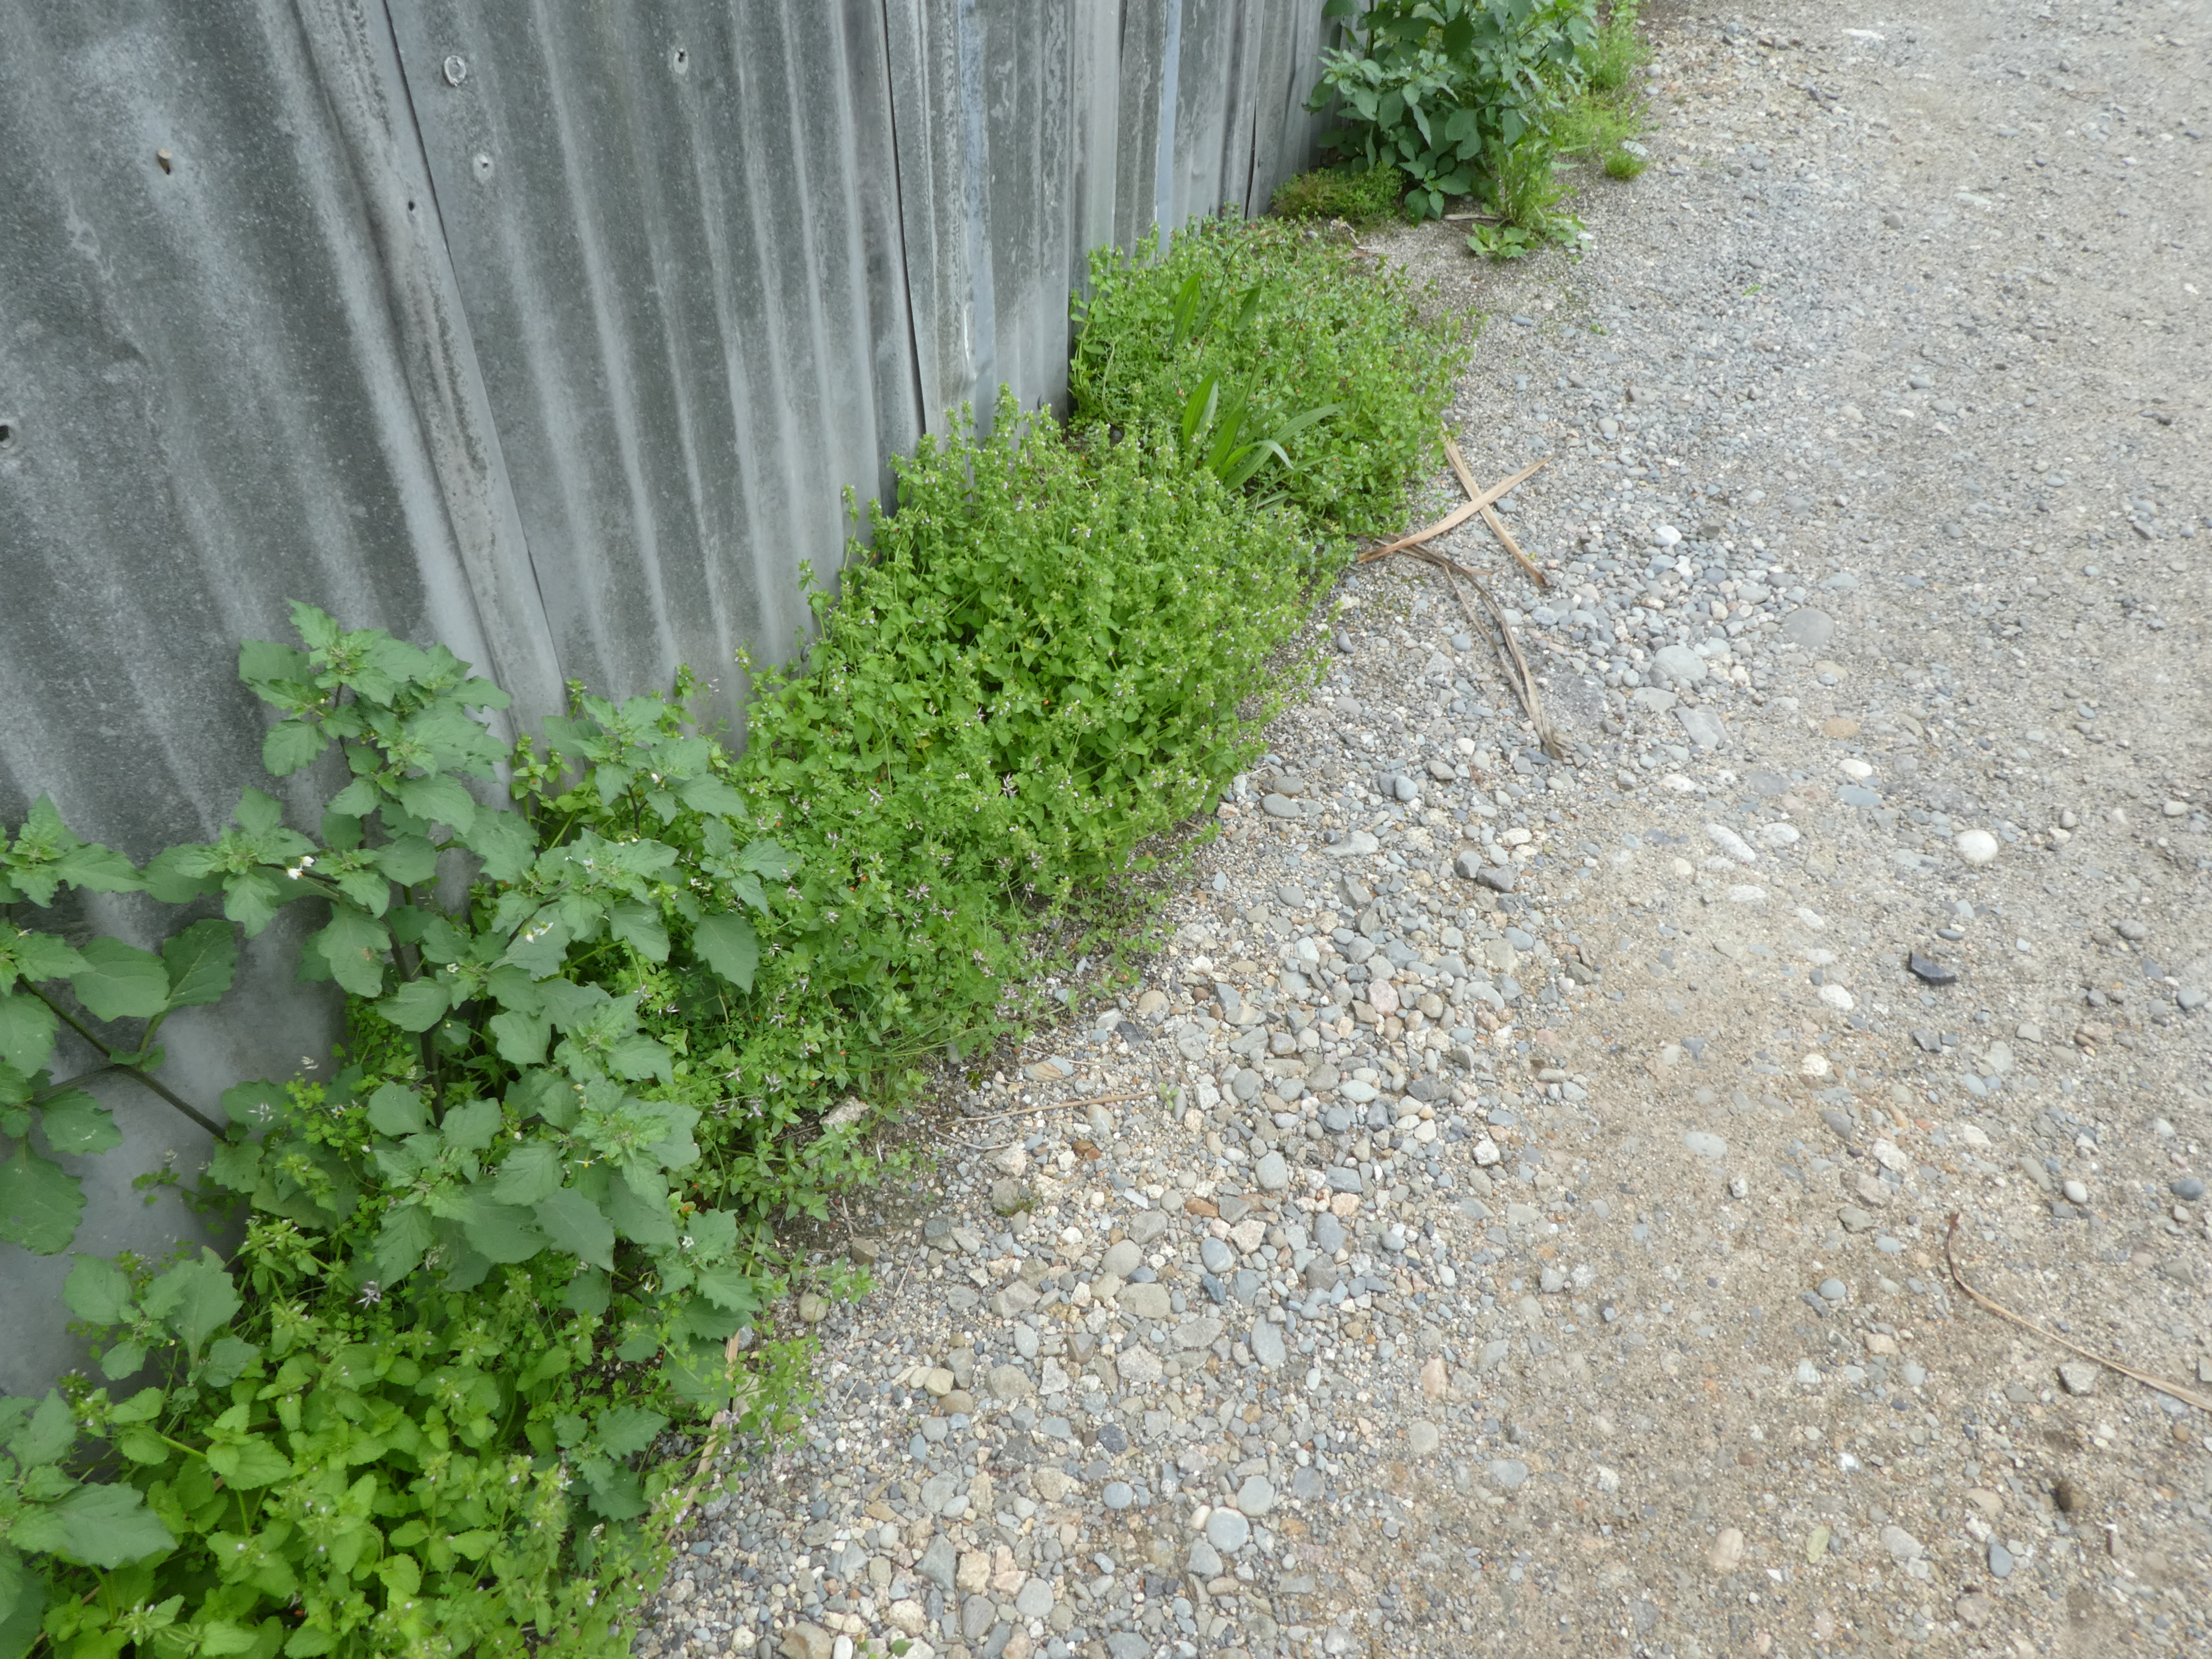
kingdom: Plantae
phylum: Tracheophyta
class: Magnoliopsida
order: Lamiales
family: Lamiaceae
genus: Stachys
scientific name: Stachys arvensis
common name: Field woundwort
